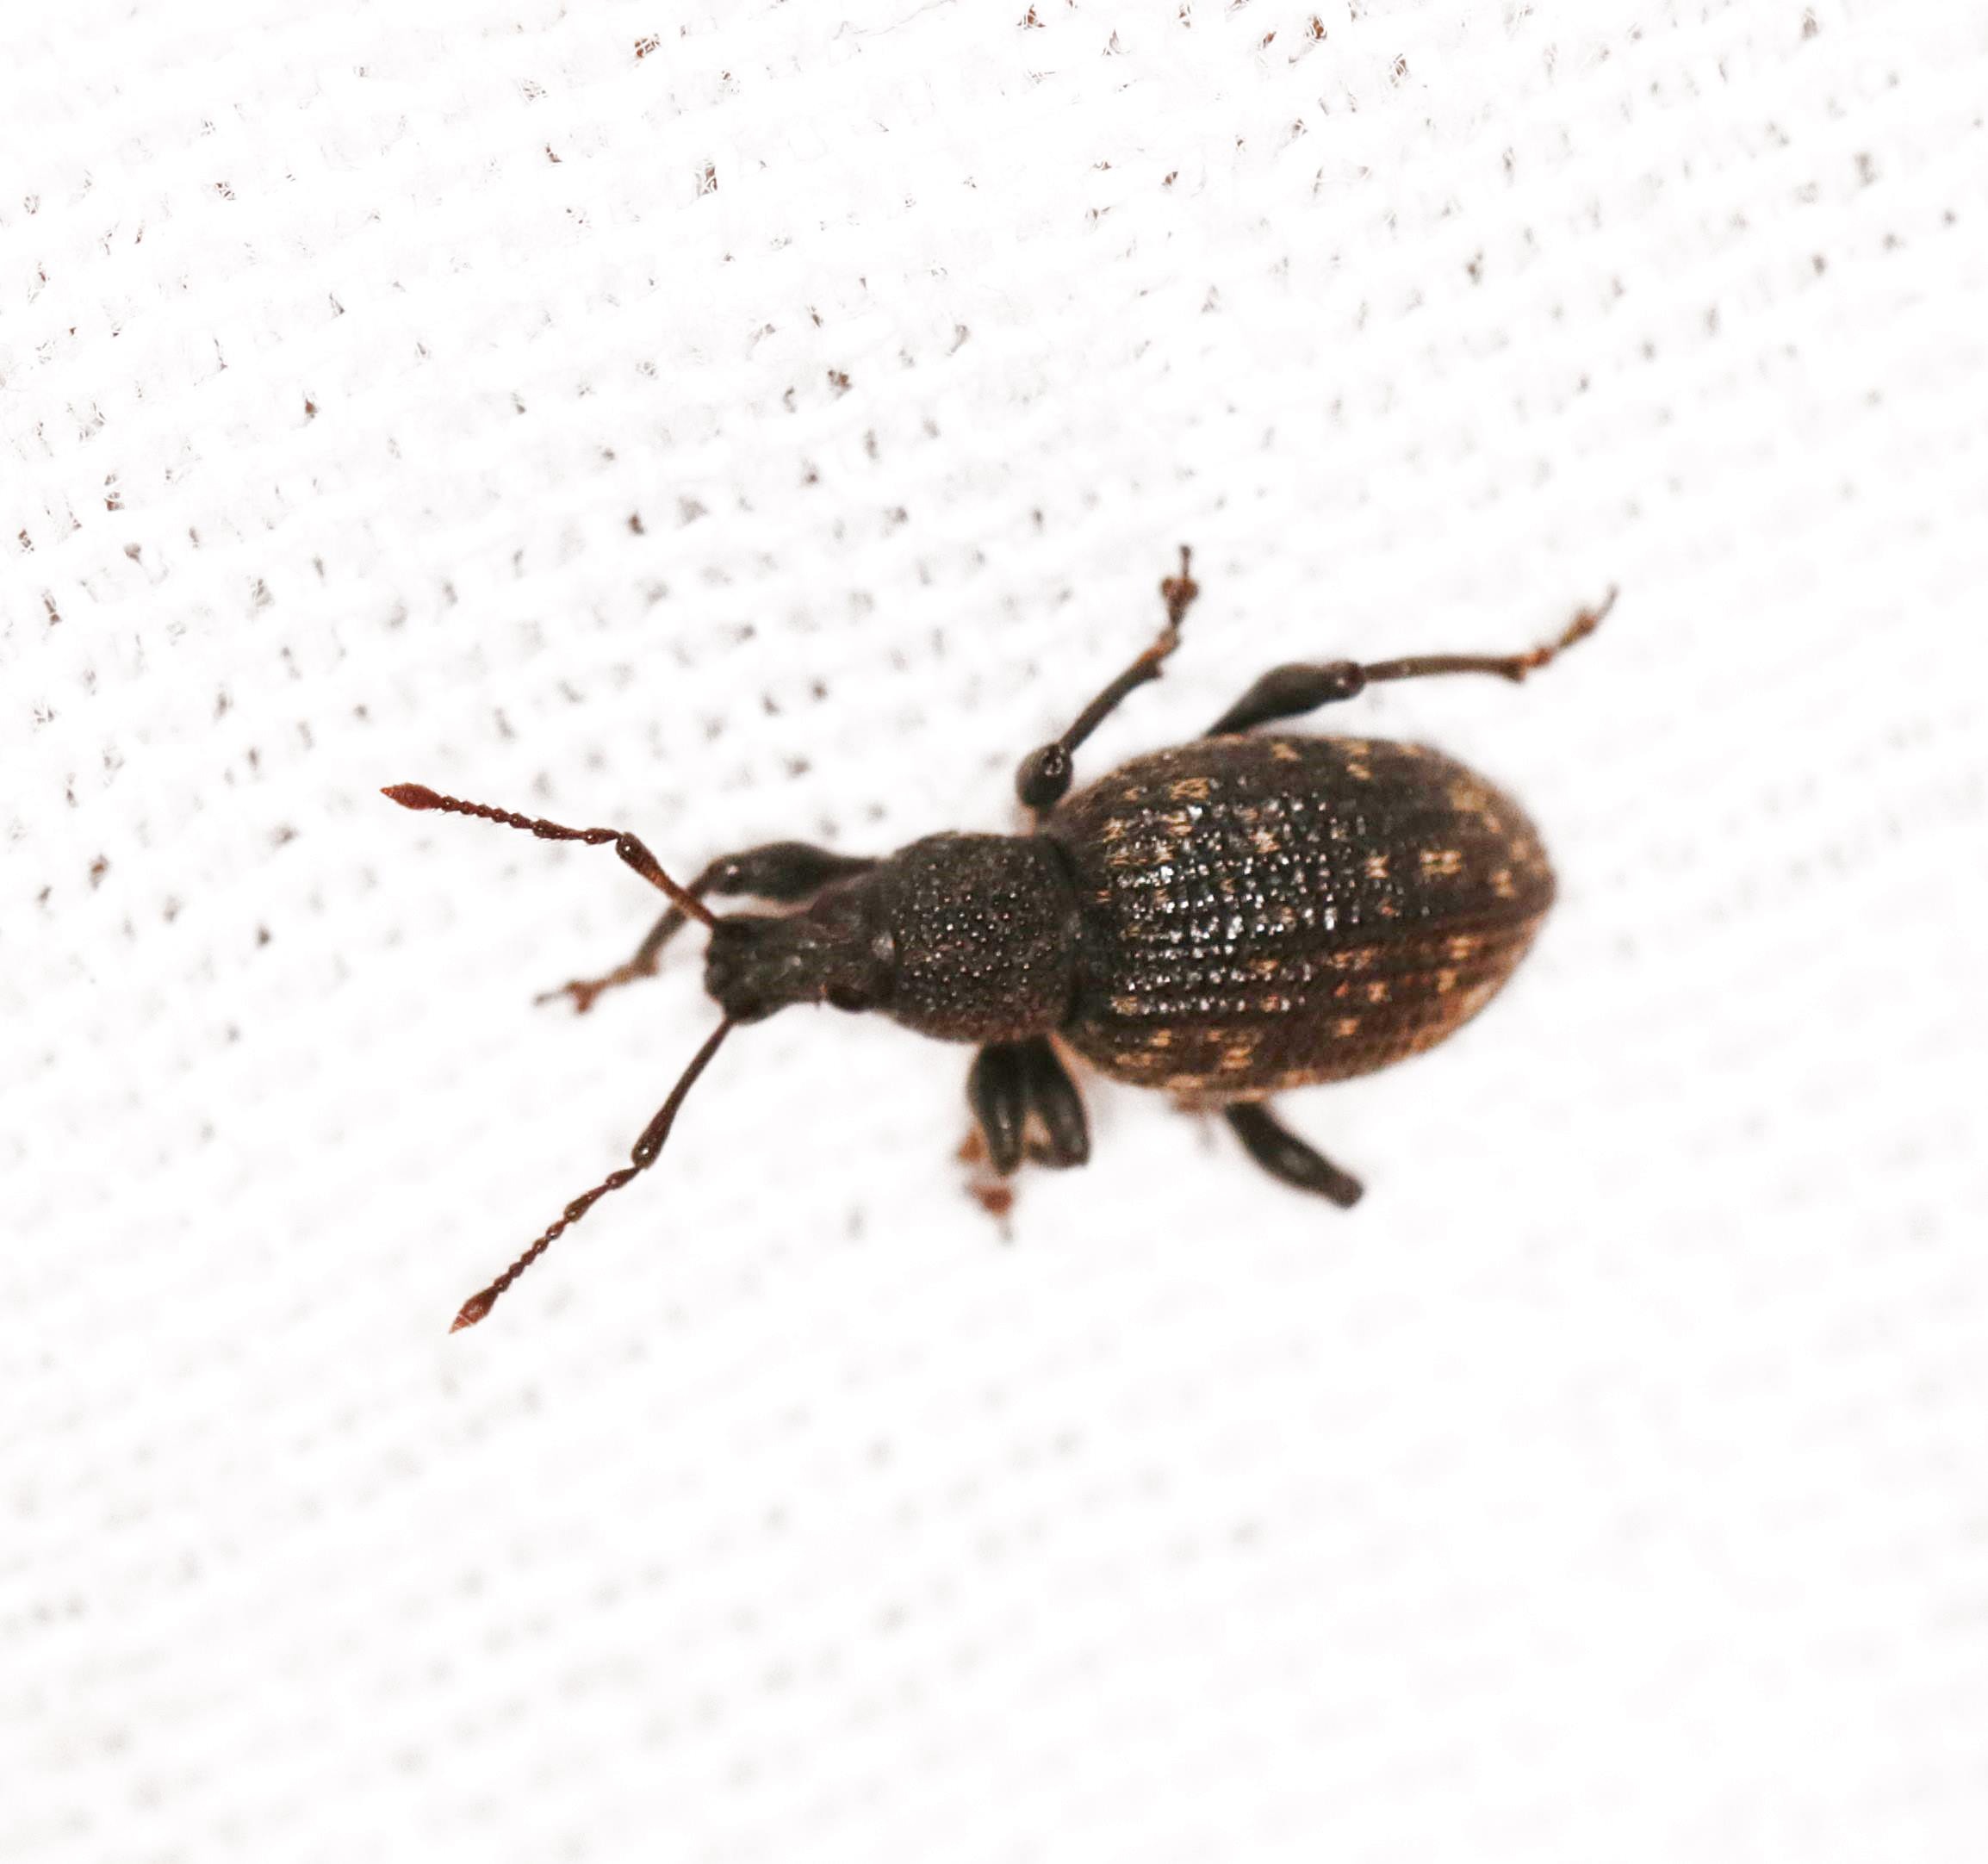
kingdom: Animalia
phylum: Arthropoda
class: Insecta
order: Coleoptera
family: Curculionidae
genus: Otiorhynchus
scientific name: Otiorhynchus sulcatus
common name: Væksthussnudebille
